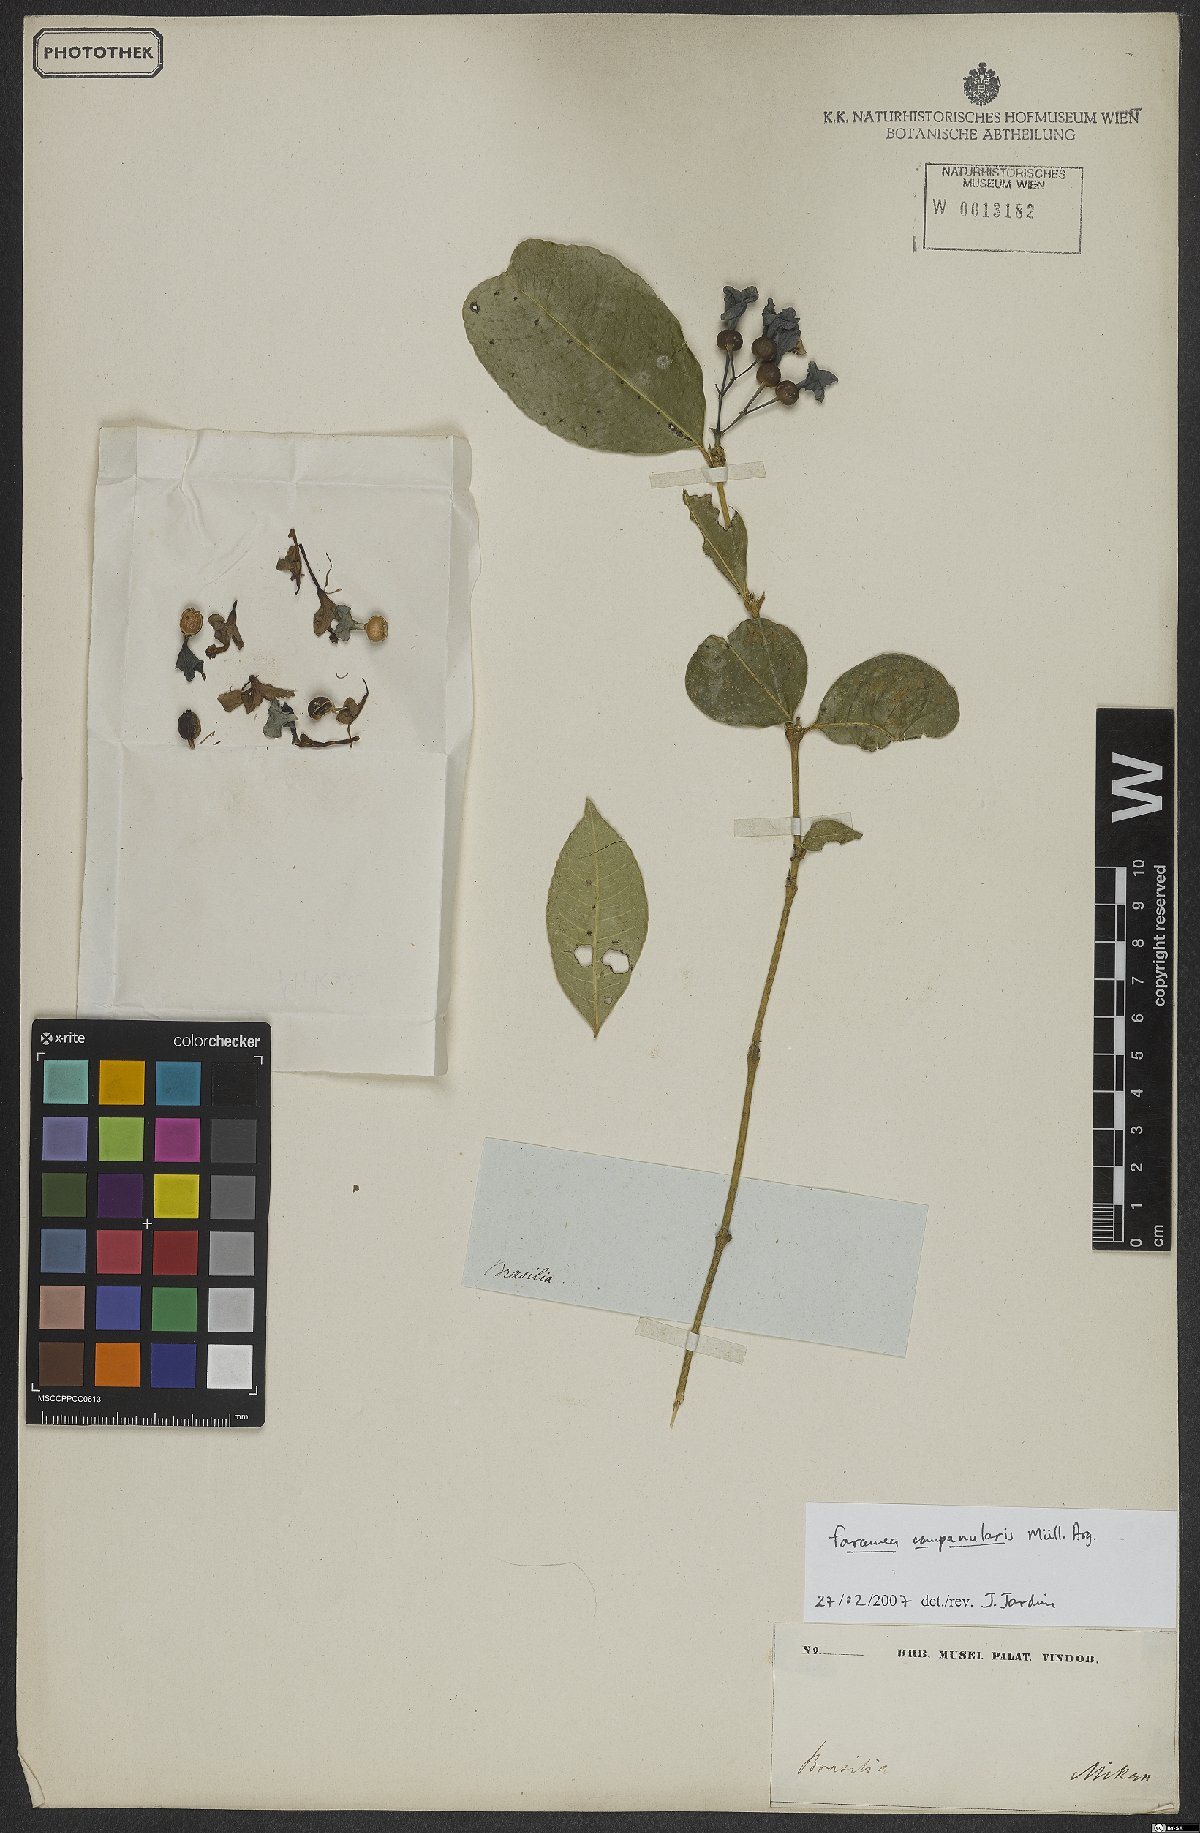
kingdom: Plantae
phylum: Tracheophyta
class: Magnoliopsida
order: Gentianales
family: Rubiaceae
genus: Faramea
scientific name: Faramea campanularis
